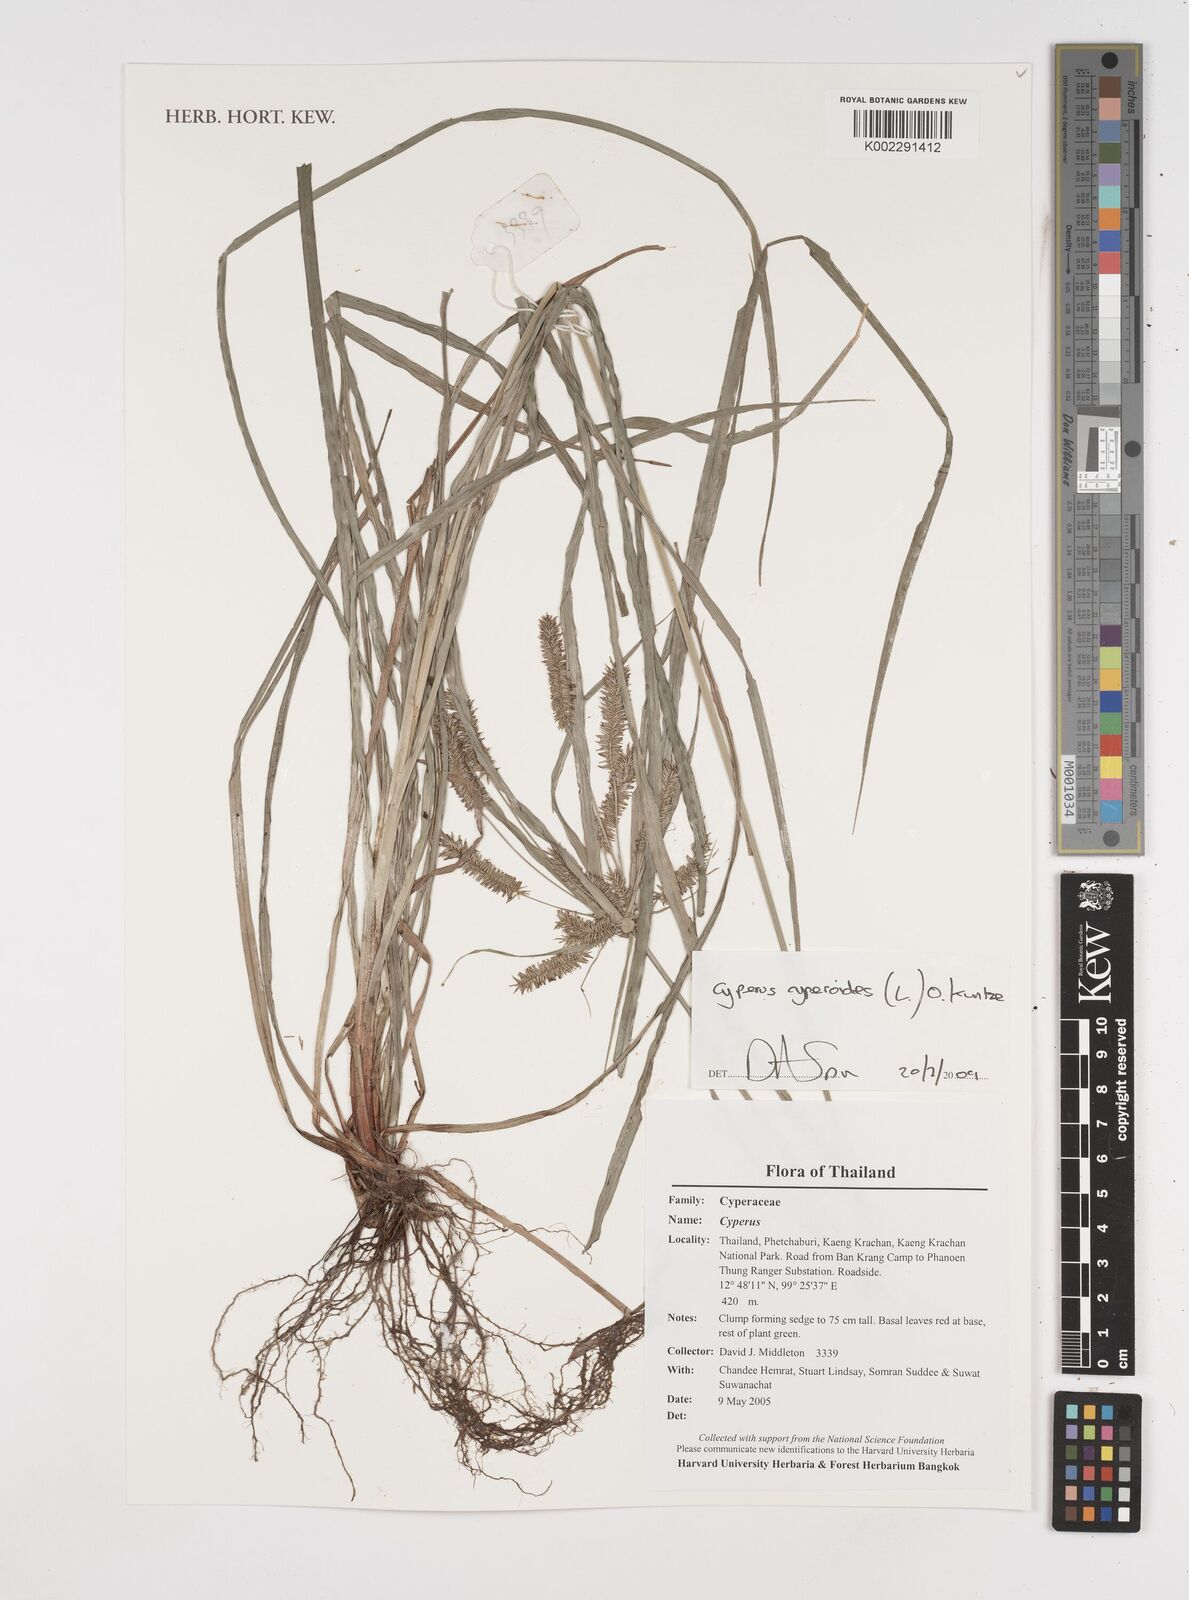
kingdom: Plantae
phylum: Tracheophyta
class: Liliopsida
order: Poales
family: Cyperaceae
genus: Cyperus
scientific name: Cyperus cyperoides
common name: Pacific island flat sedge
